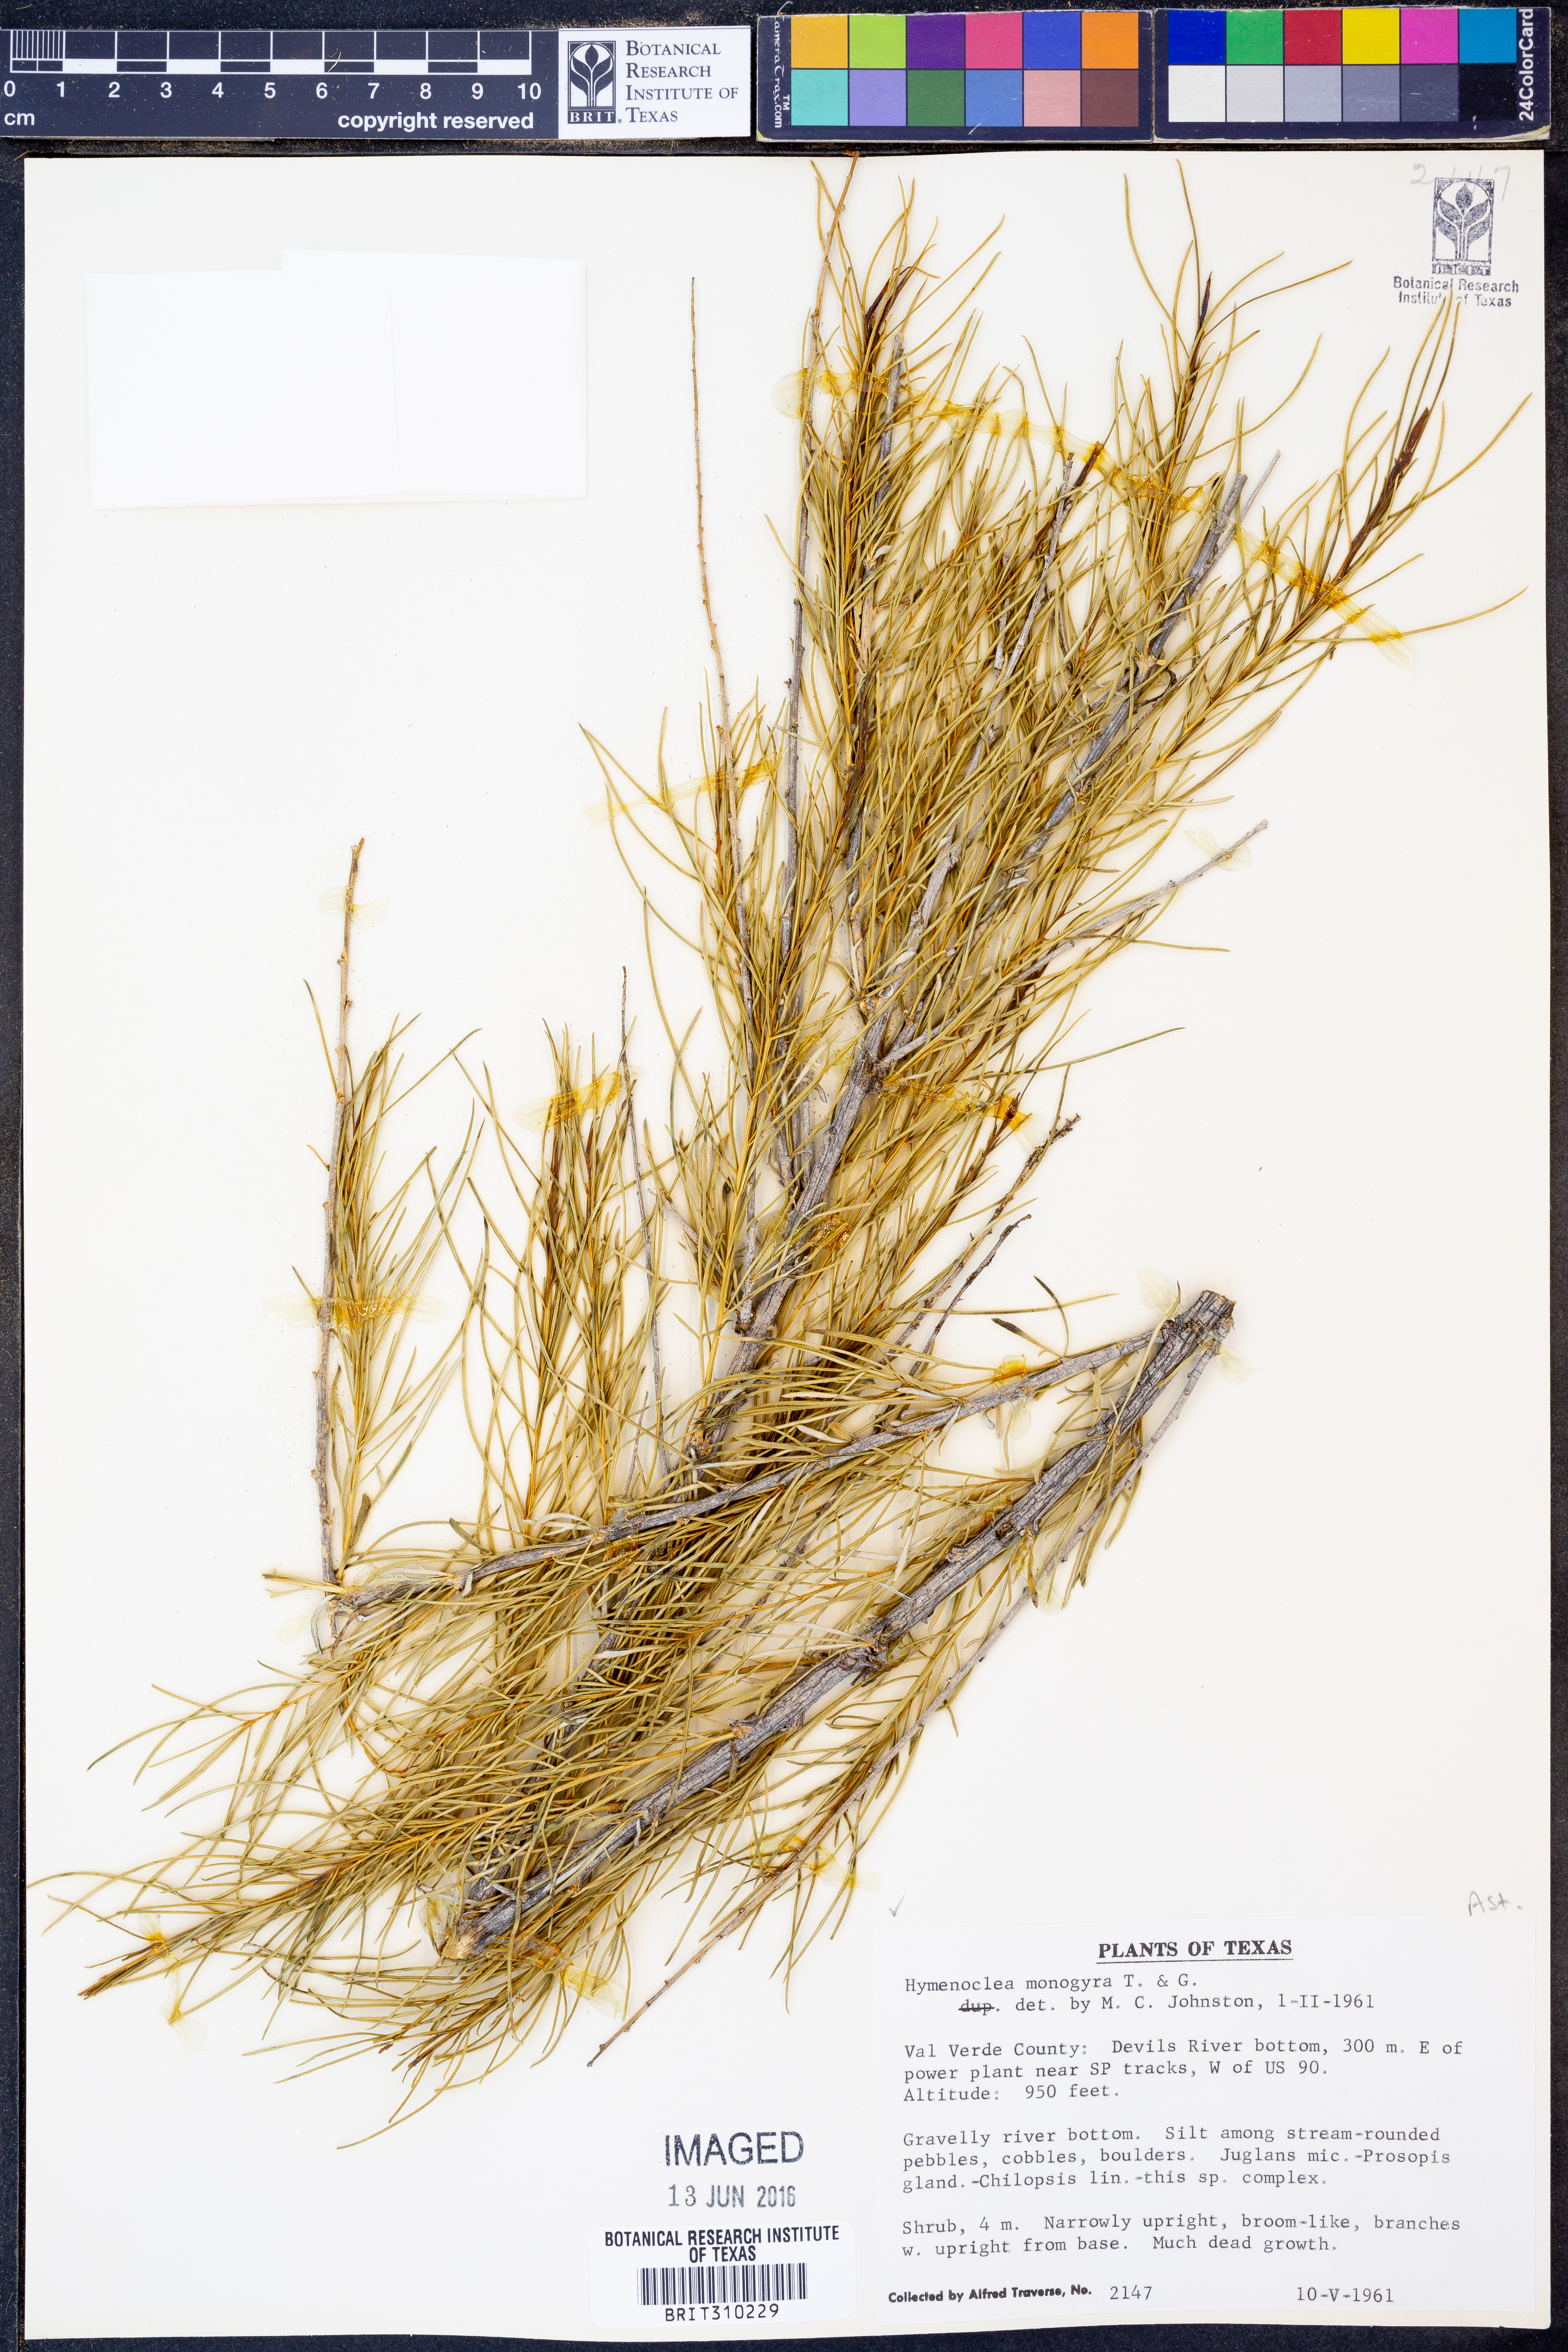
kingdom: Plantae
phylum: Tracheophyta
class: Magnoliopsida
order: Asterales
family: Asteraceae
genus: Ambrosia
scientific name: Ambrosia monogyra
